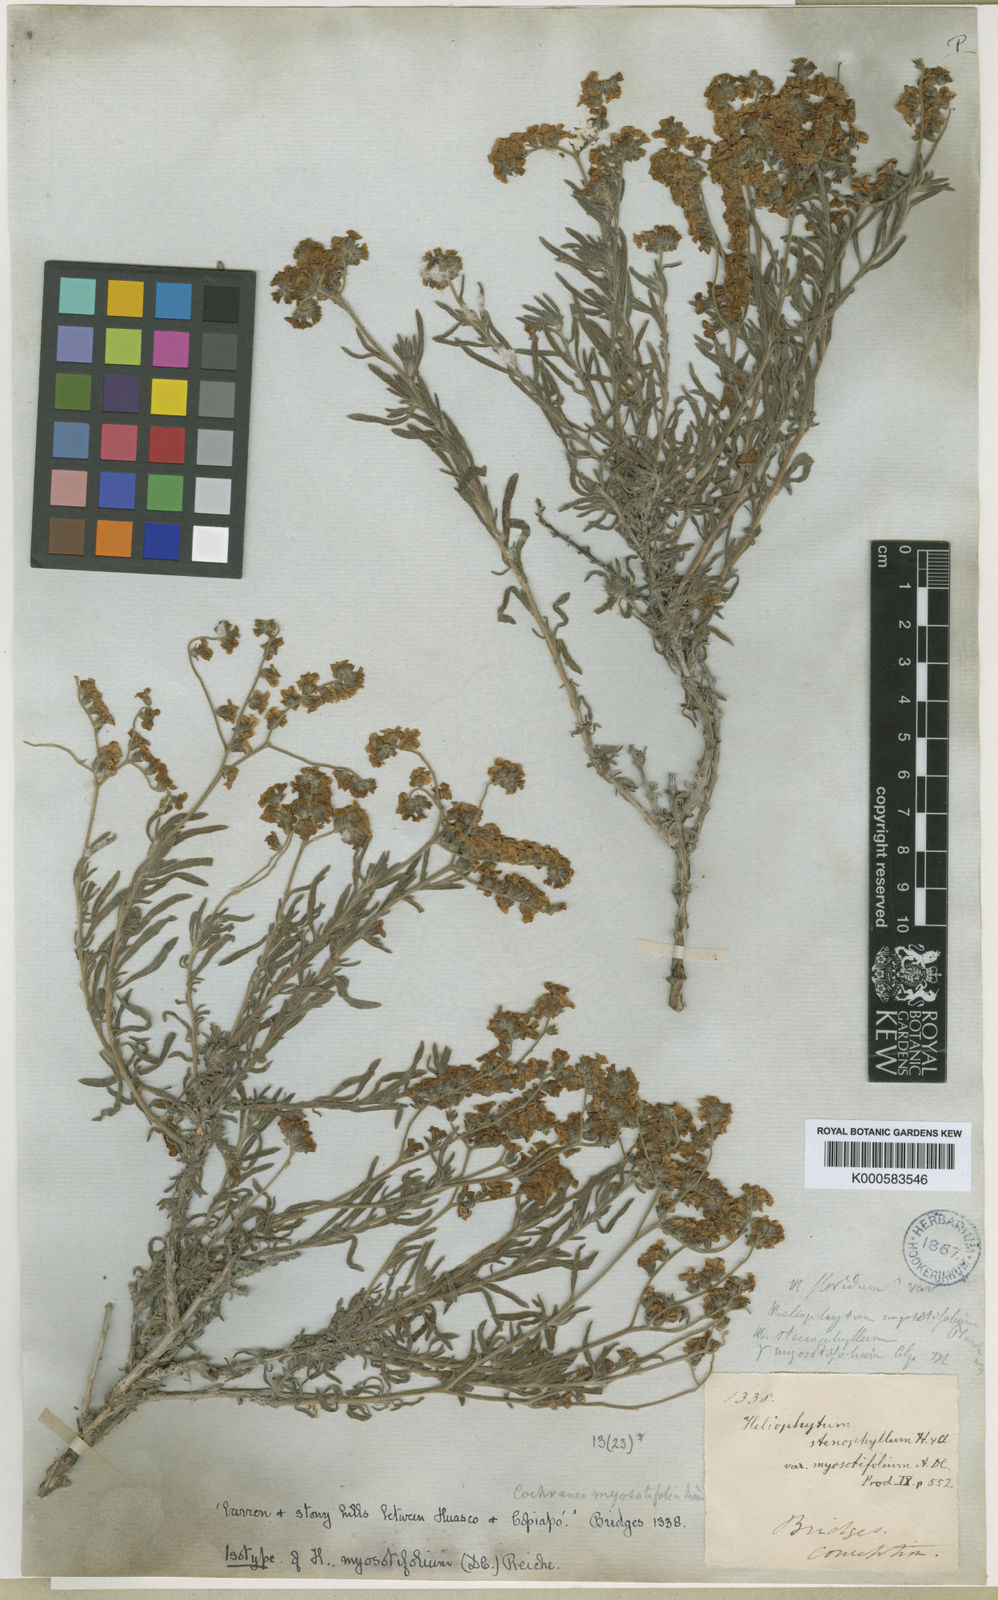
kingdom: Plantae
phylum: Tracheophyta
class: Magnoliopsida
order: Boraginales
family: Heliotropiaceae
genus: Heliotropium
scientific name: Heliotropium myosotifolium
